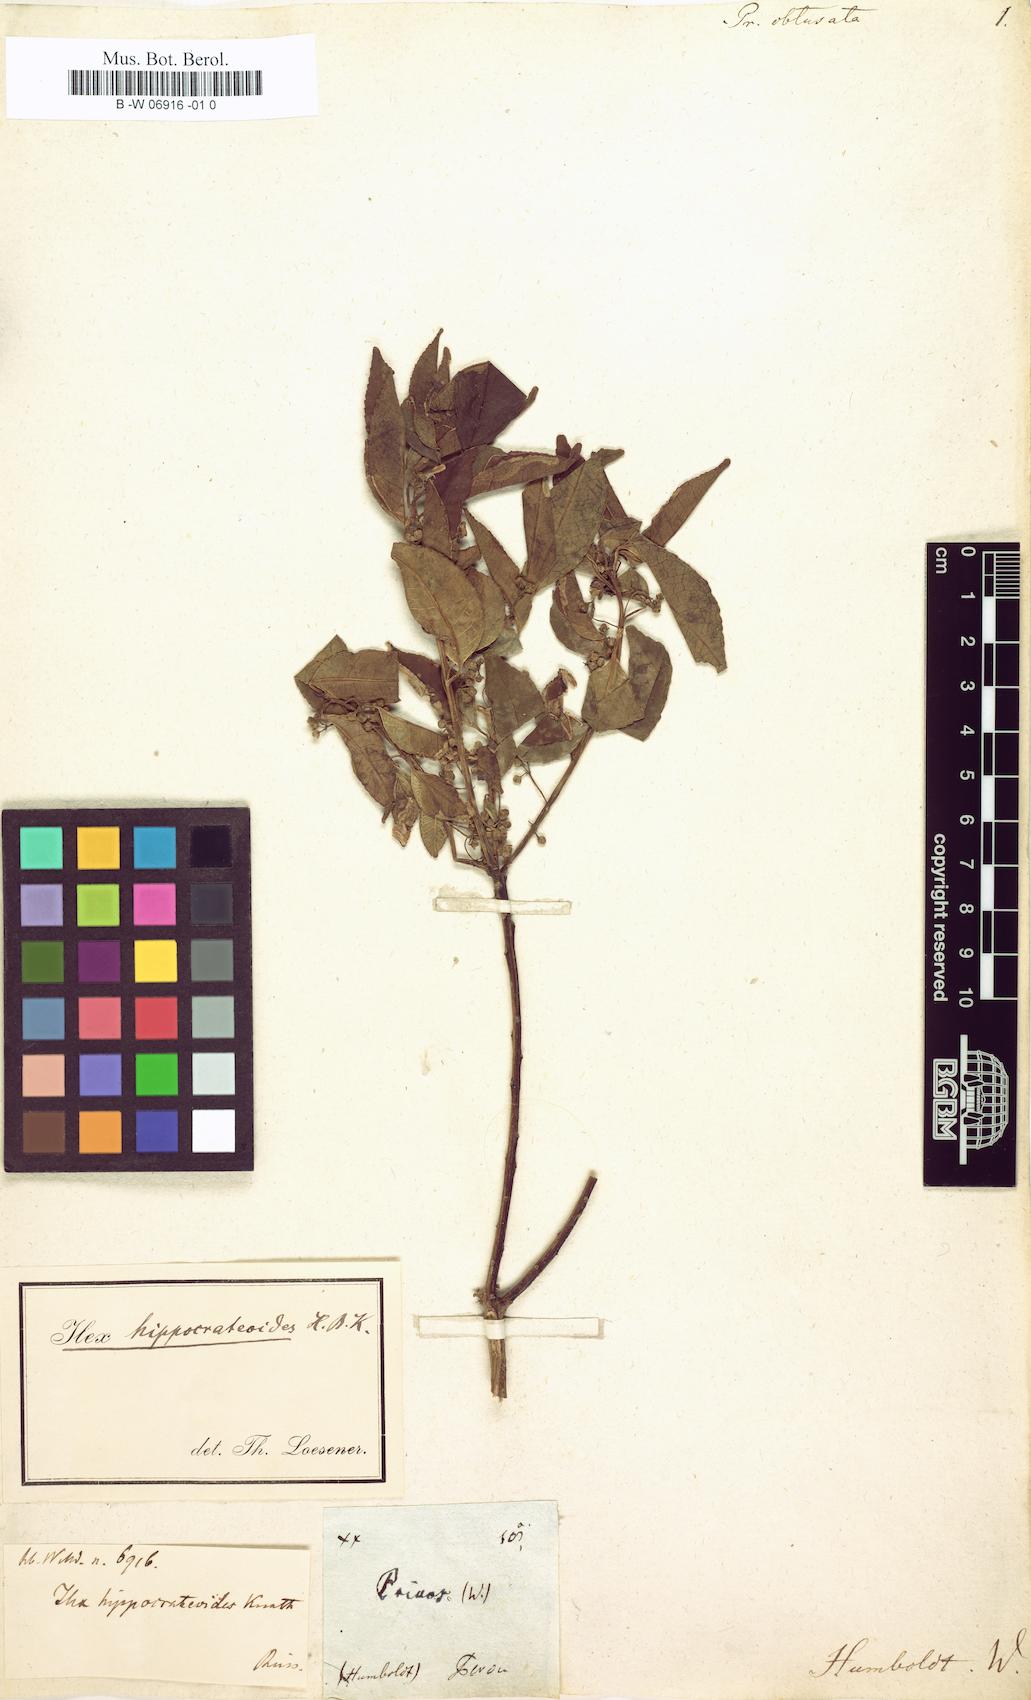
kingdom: Plantae
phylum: Tracheophyta
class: Magnoliopsida
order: Aquifoliales
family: Aquifoliaceae
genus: Ilex
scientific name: Ilex obtusata
